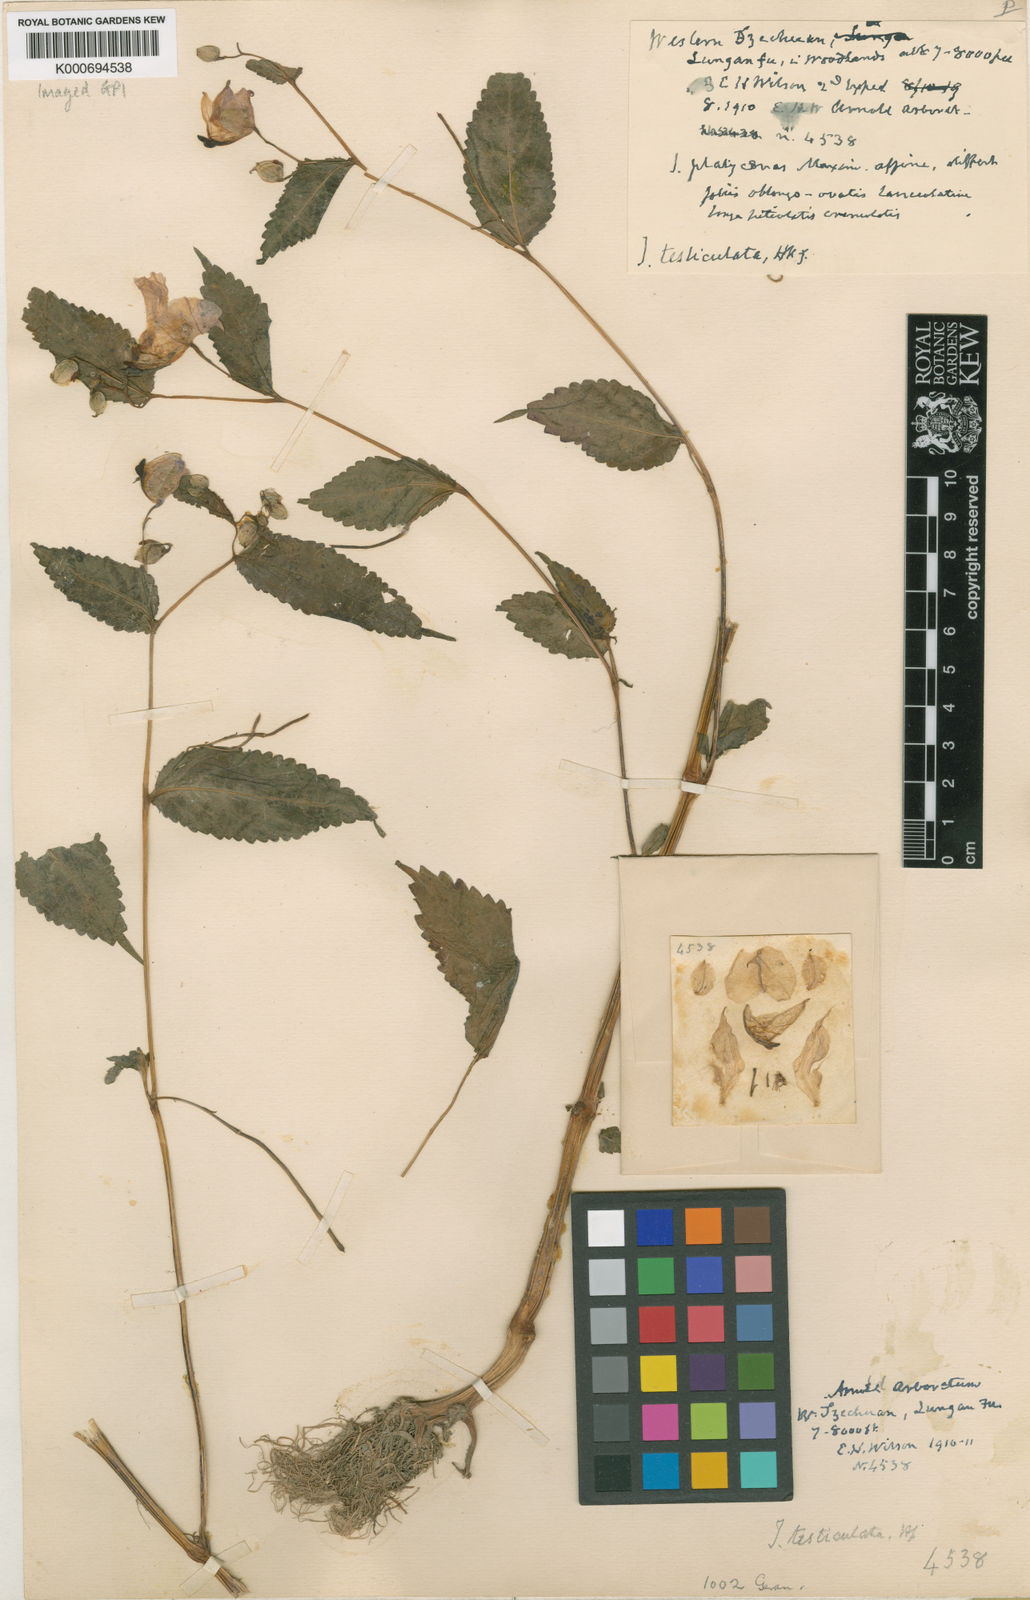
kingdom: Plantae
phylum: Tracheophyta
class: Magnoliopsida
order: Ericales
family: Balsaminaceae
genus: Impatiens
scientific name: Impatiens
